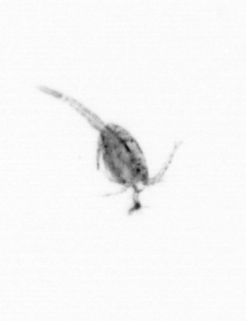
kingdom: Animalia
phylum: Arthropoda
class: Copepoda
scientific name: Copepoda
